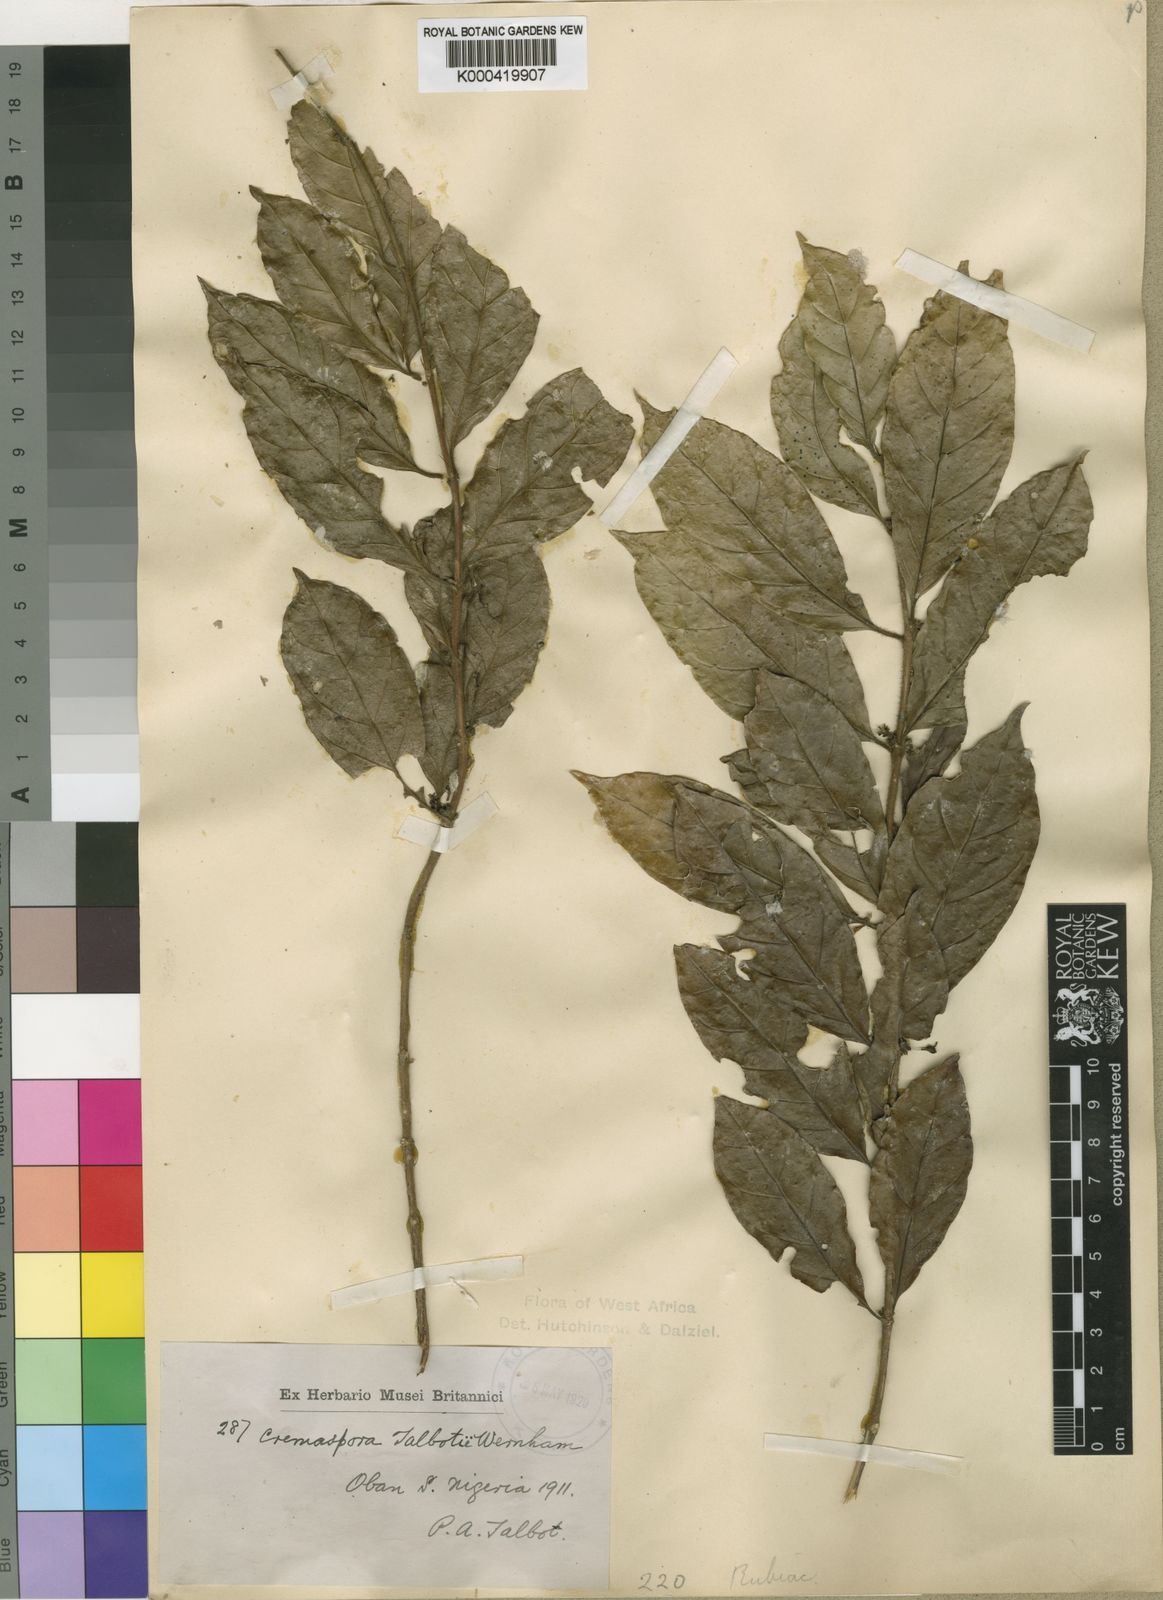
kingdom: Plantae
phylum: Tracheophyta
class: Magnoliopsida
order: Gentianales
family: Rubiaceae
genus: Empogona
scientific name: Empogona talbotii
